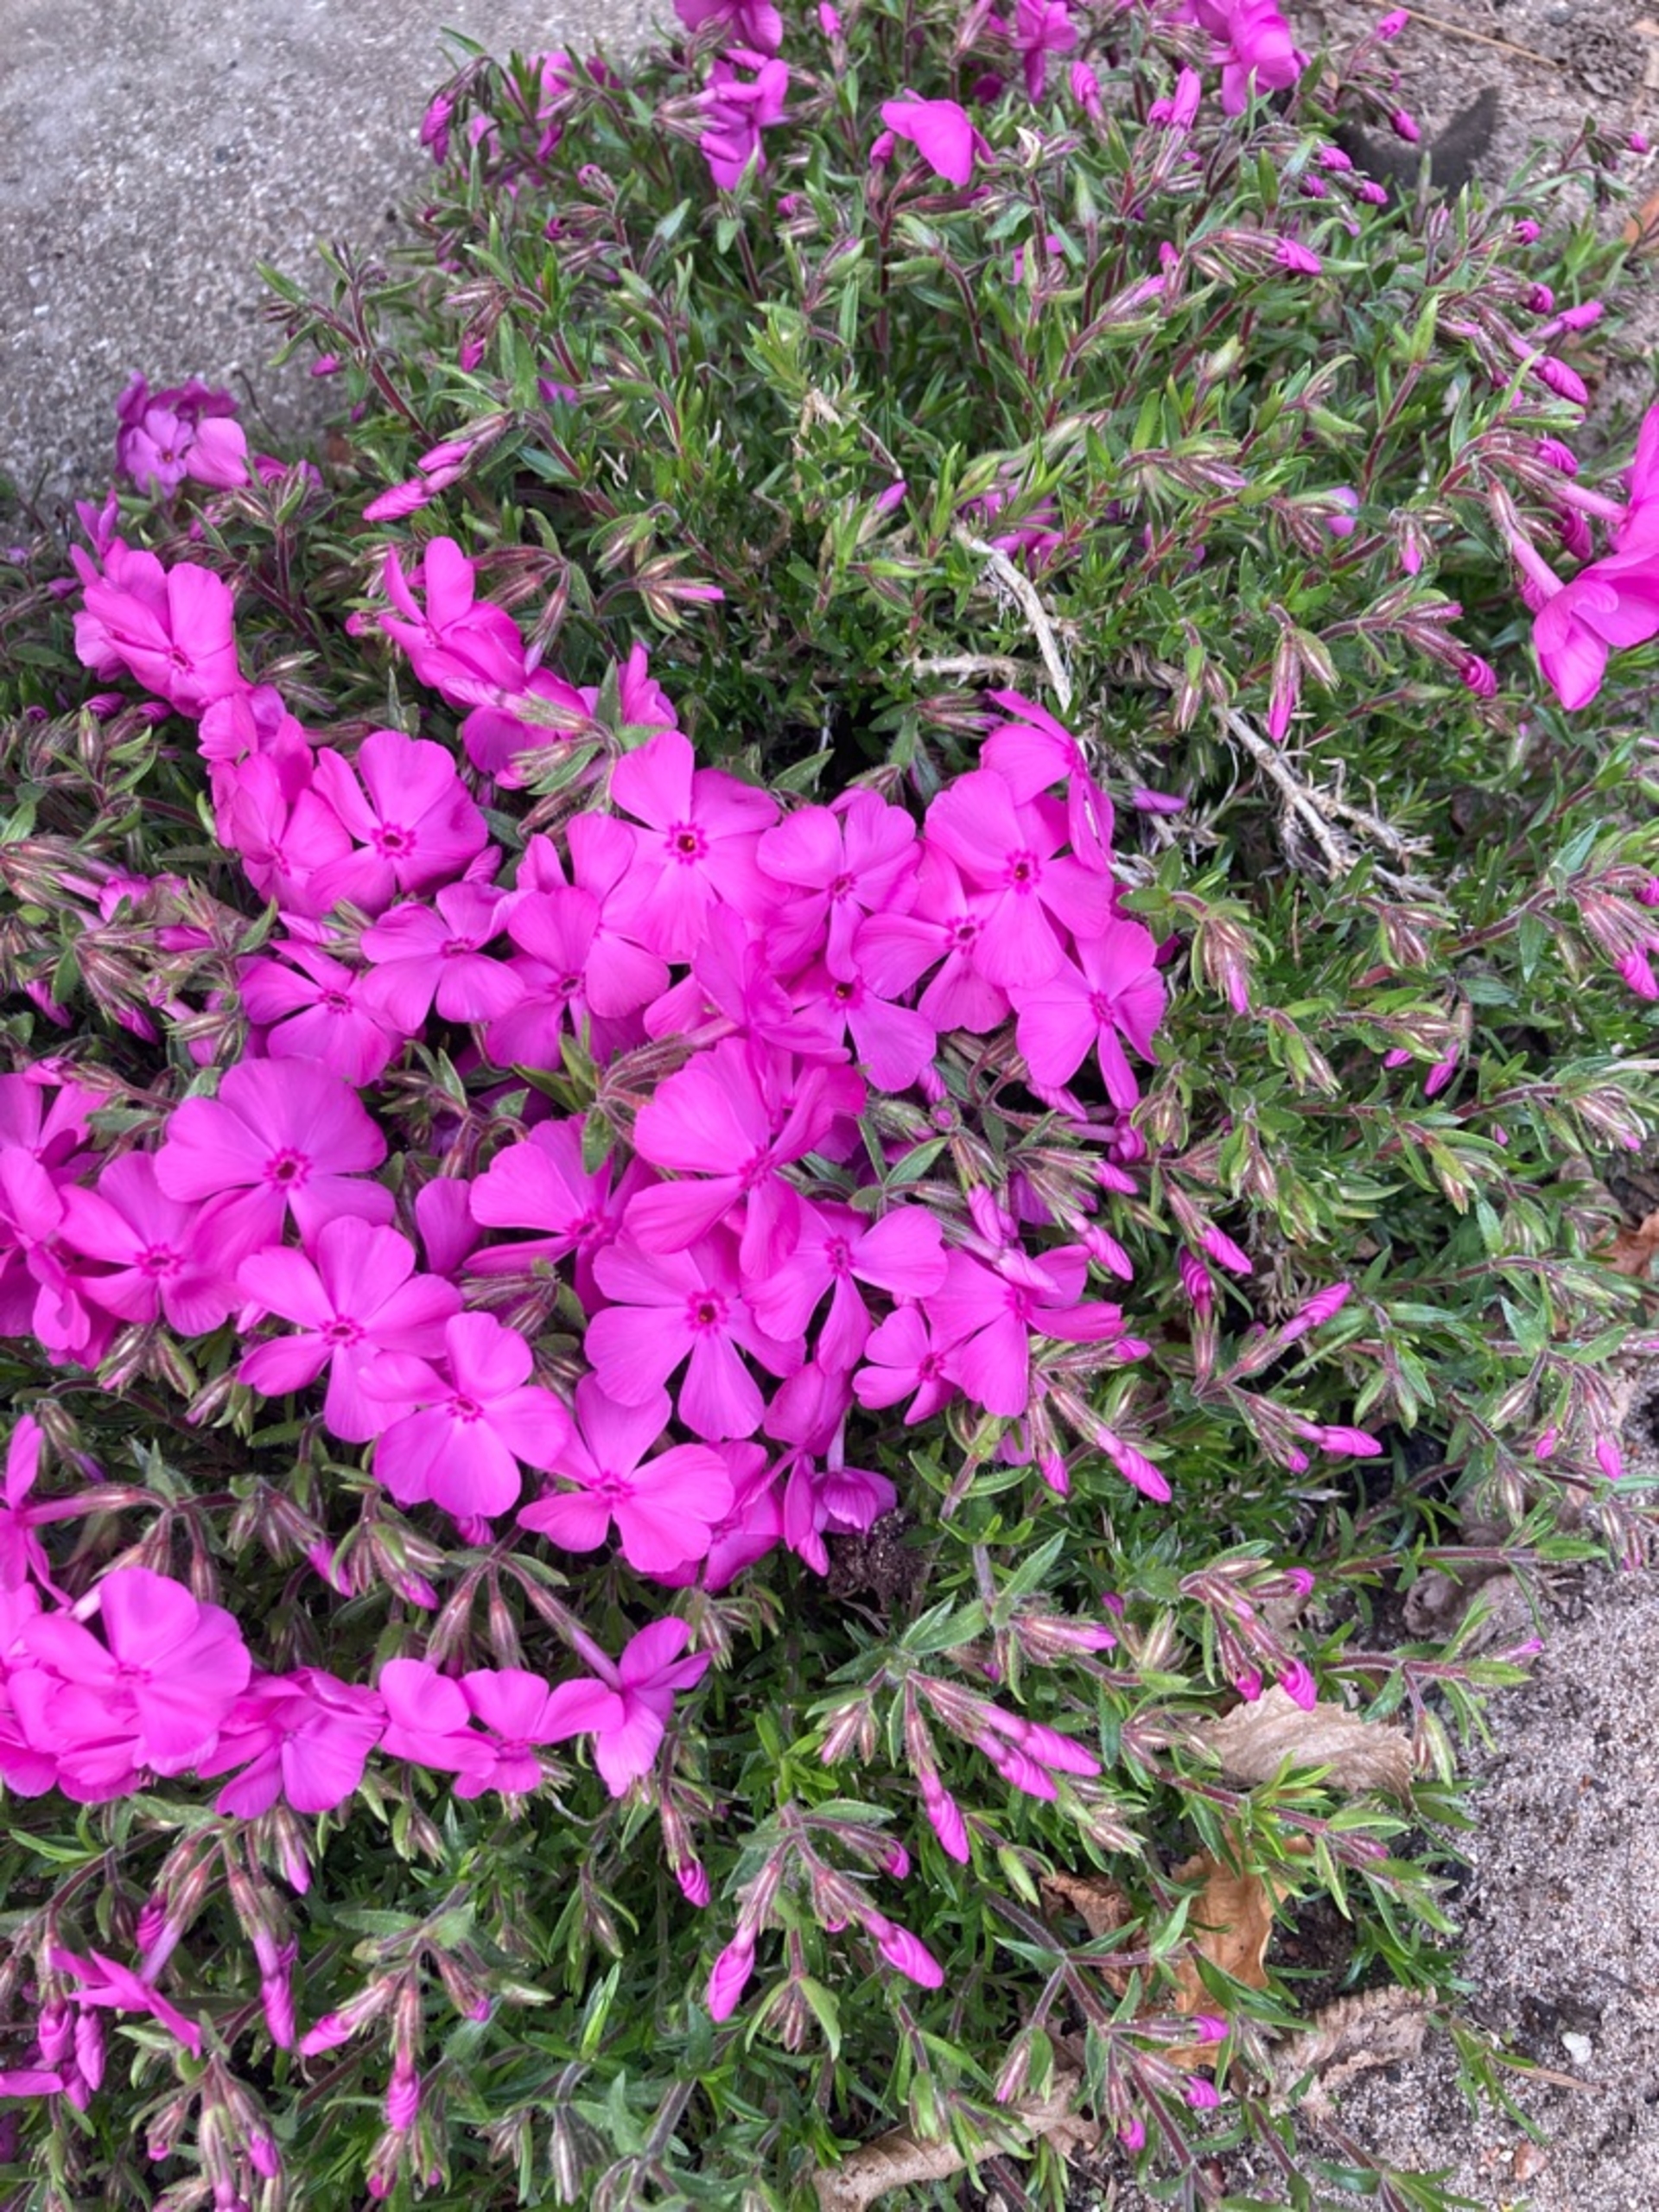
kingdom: Plantae
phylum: Tracheophyta
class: Magnoliopsida
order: Ericales
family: Polemoniaceae
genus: Phlox
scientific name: Phlox subulata
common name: Lyng-floks
